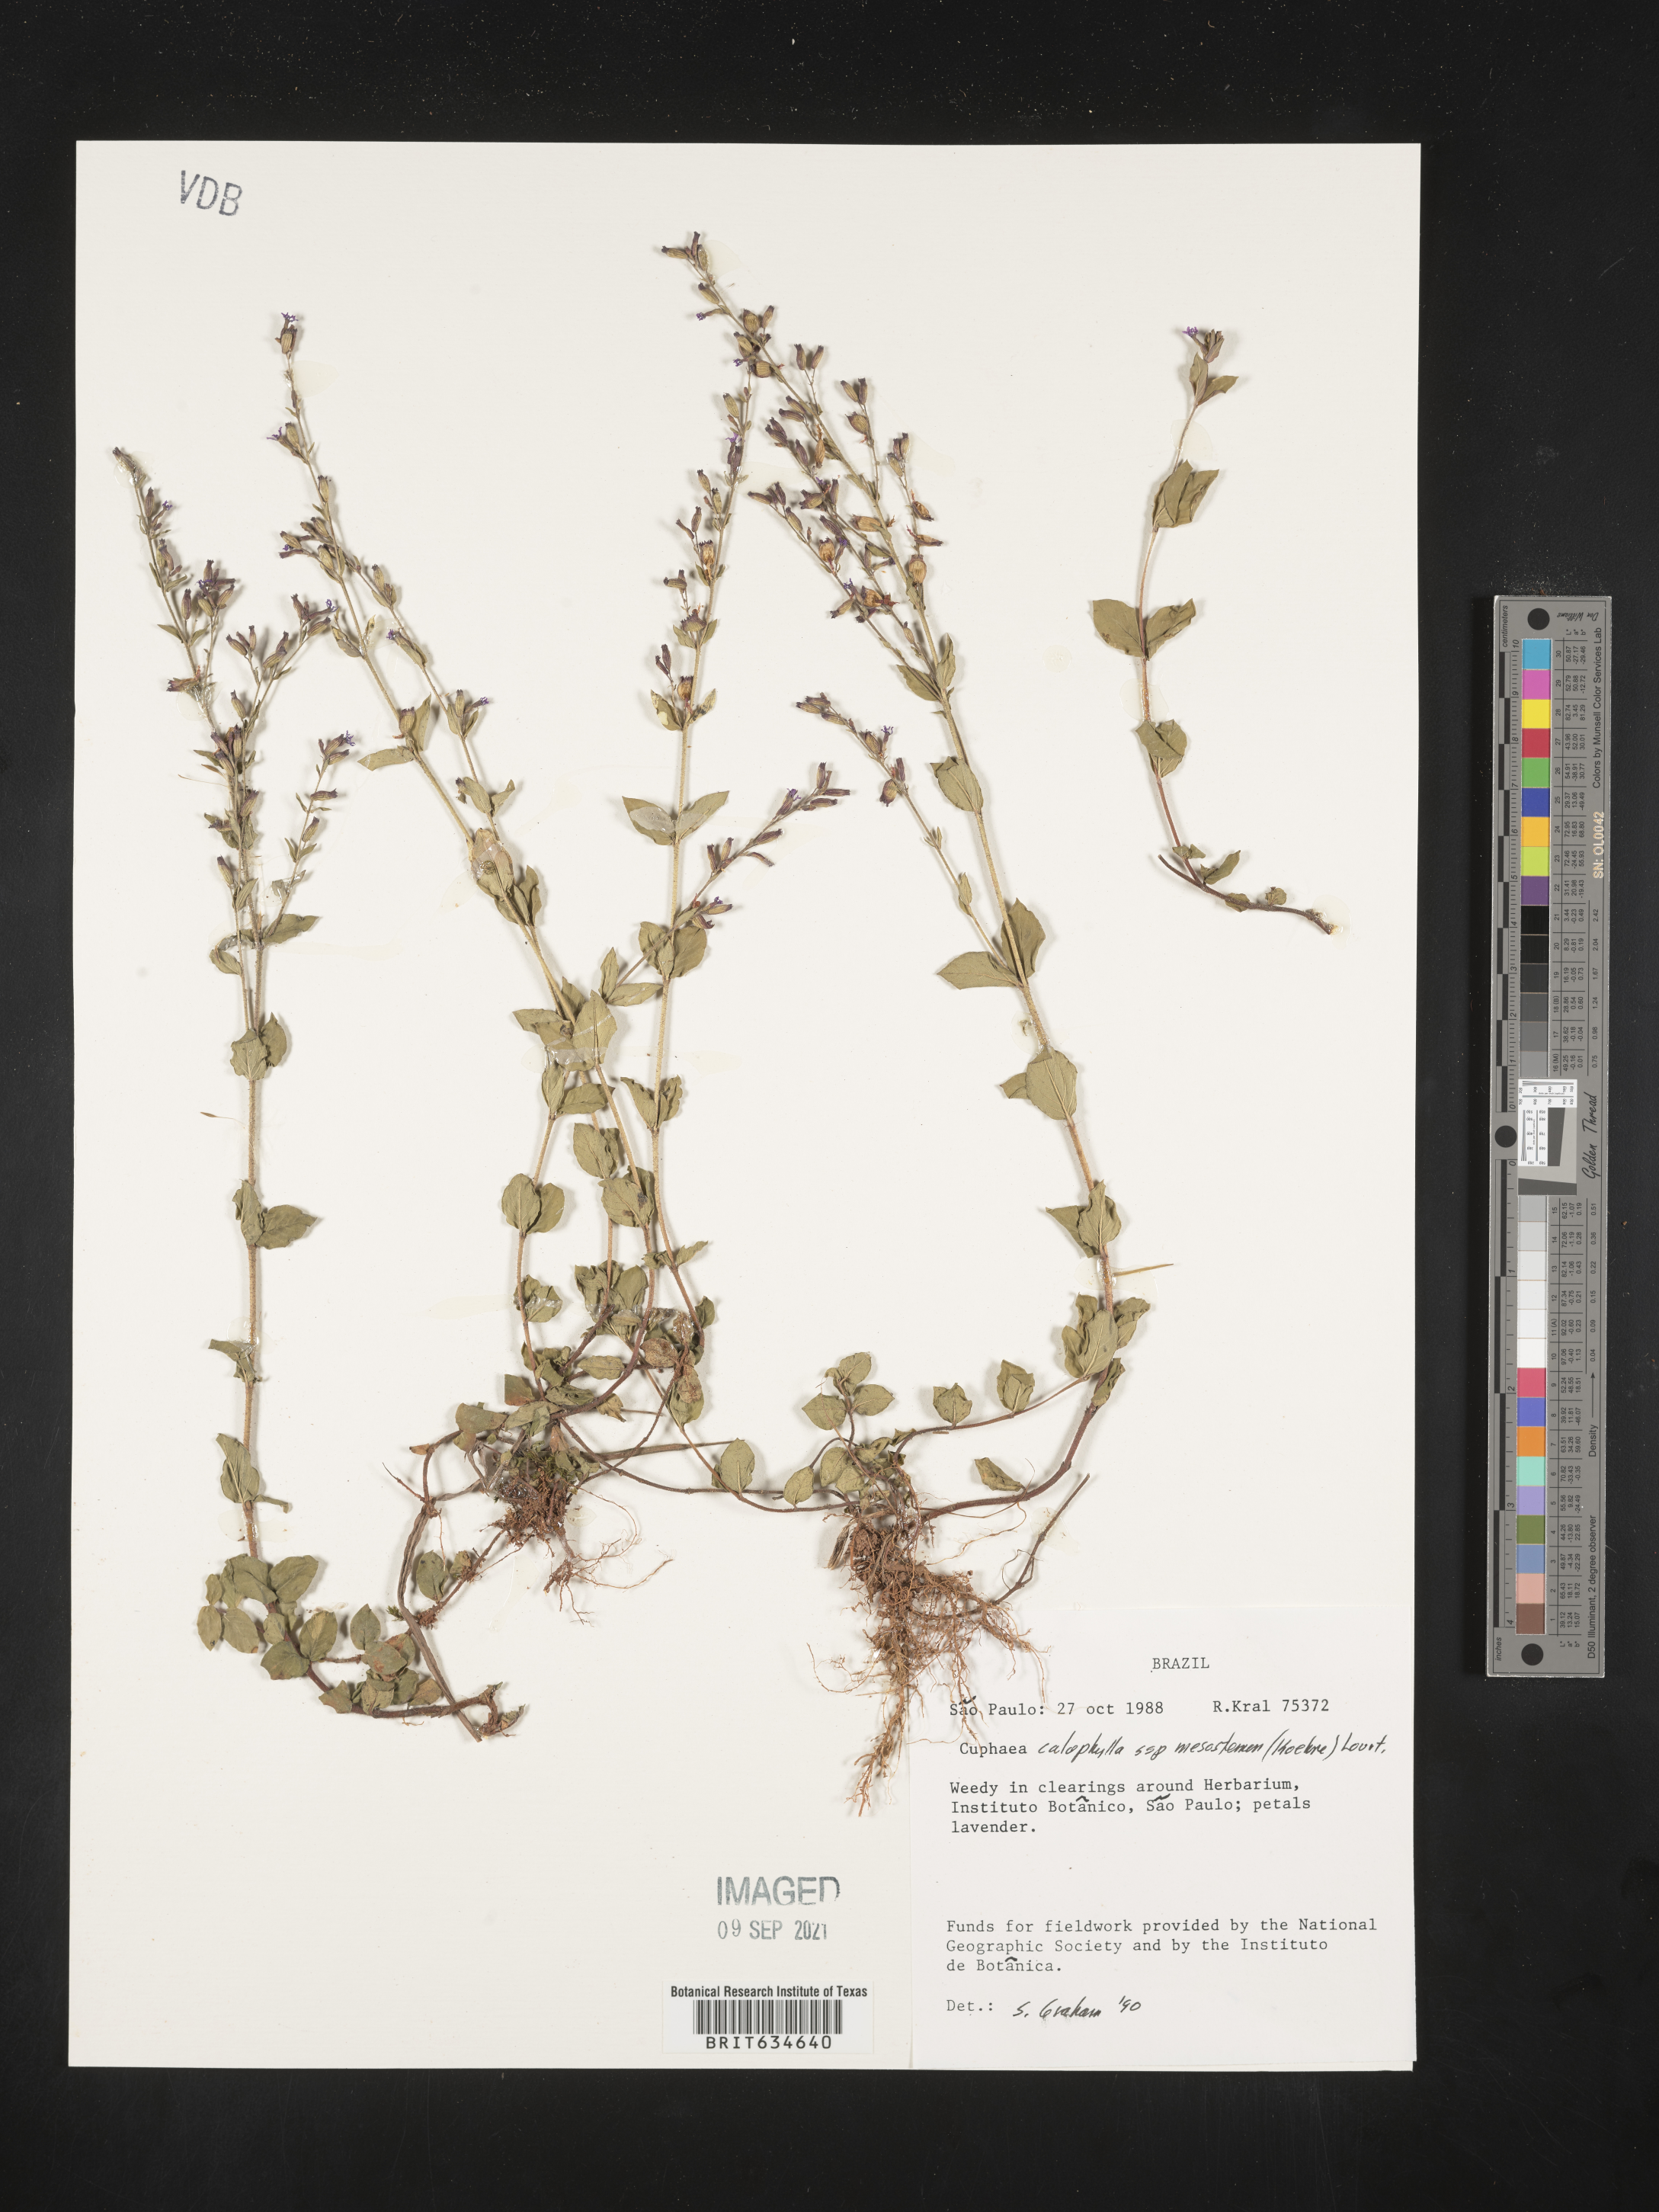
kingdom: Plantae
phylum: Tracheophyta
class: Magnoliopsida
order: Myrtales
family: Lythraceae
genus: Cuphea
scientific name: Cuphea
